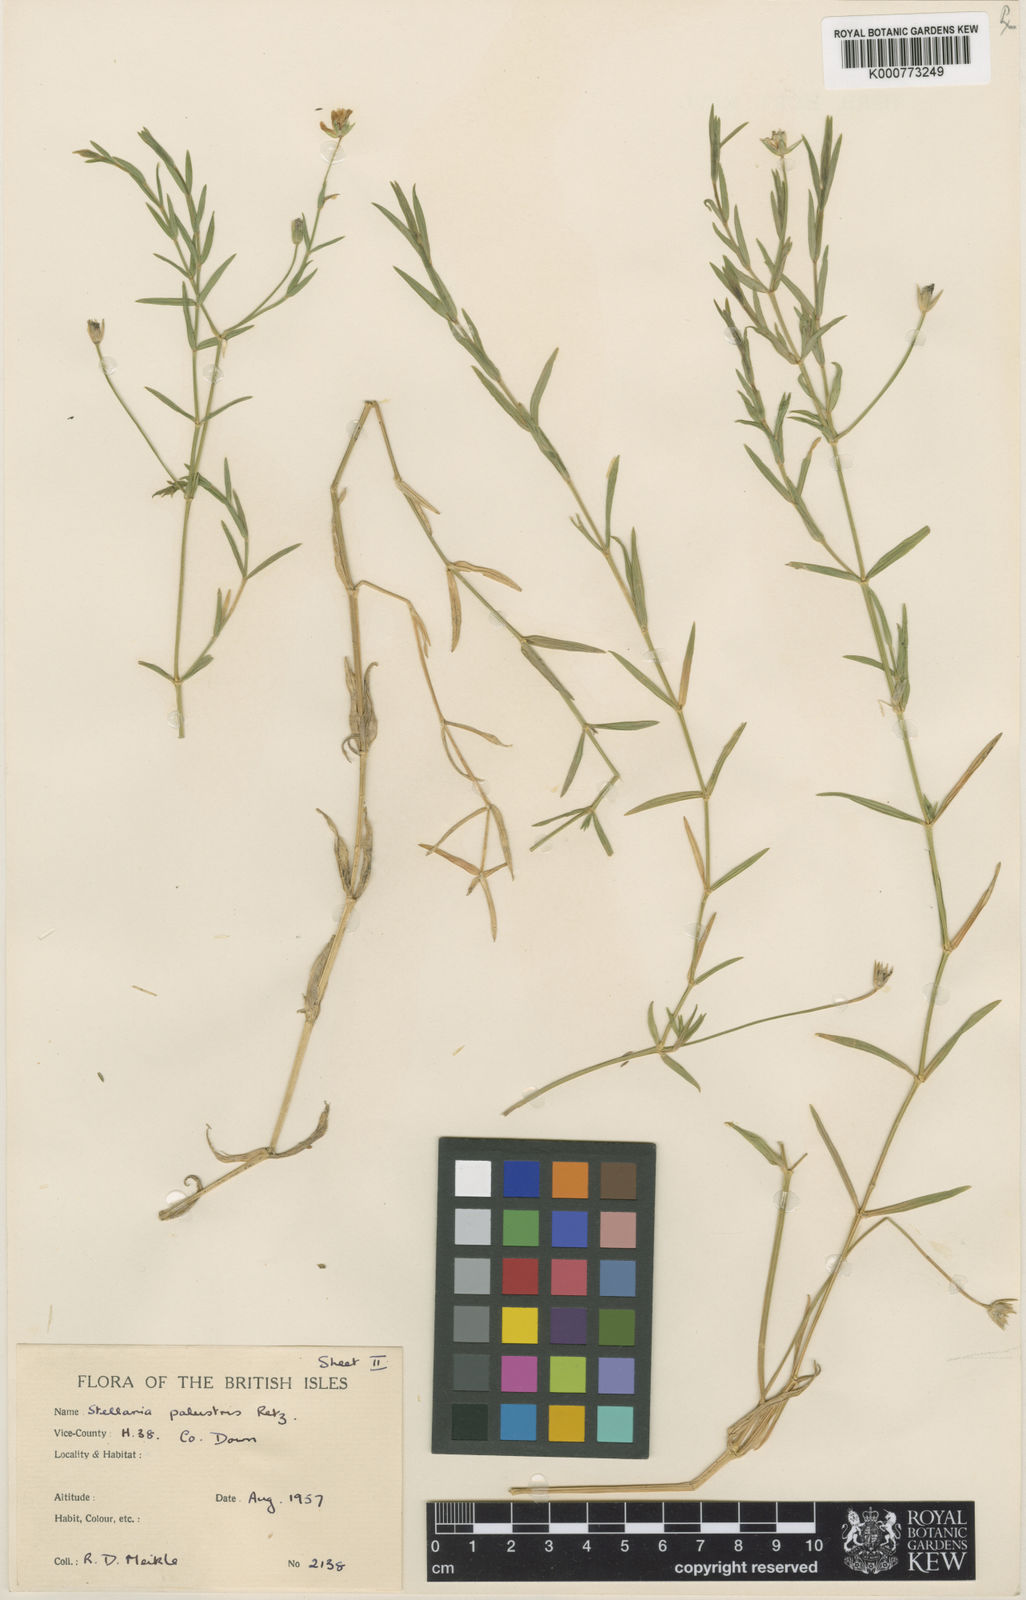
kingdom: Plantae
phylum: Tracheophyta
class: Magnoliopsida
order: Caryophyllales
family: Caryophyllaceae
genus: Stellaria
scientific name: Stellaria
